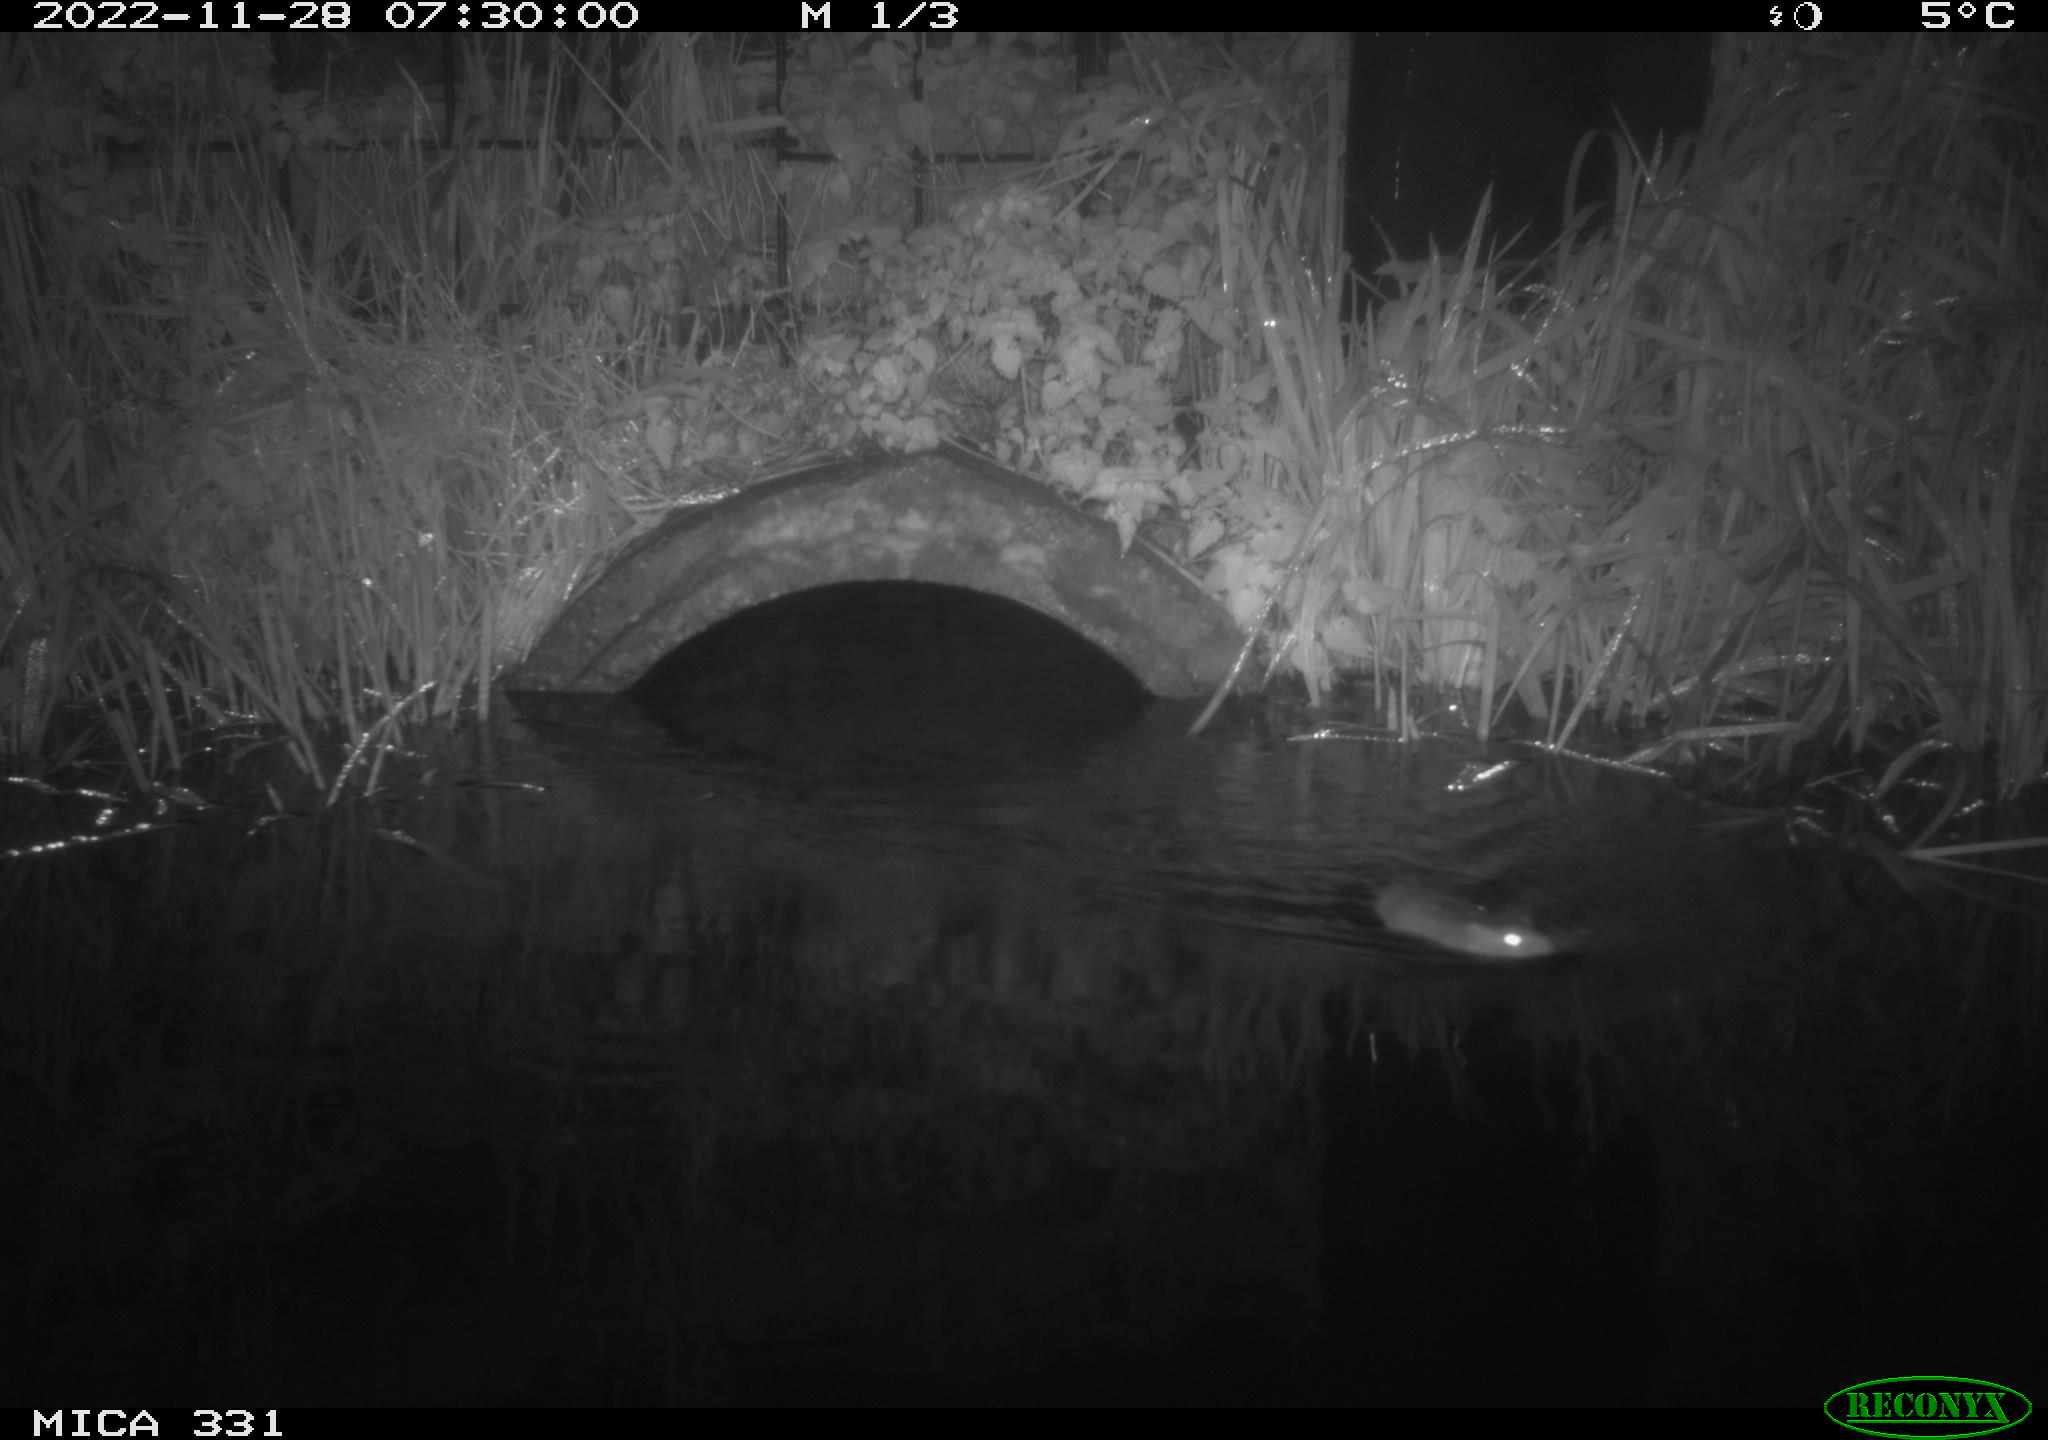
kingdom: Animalia
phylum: Chordata
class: Mammalia
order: Rodentia
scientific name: Rodentia
